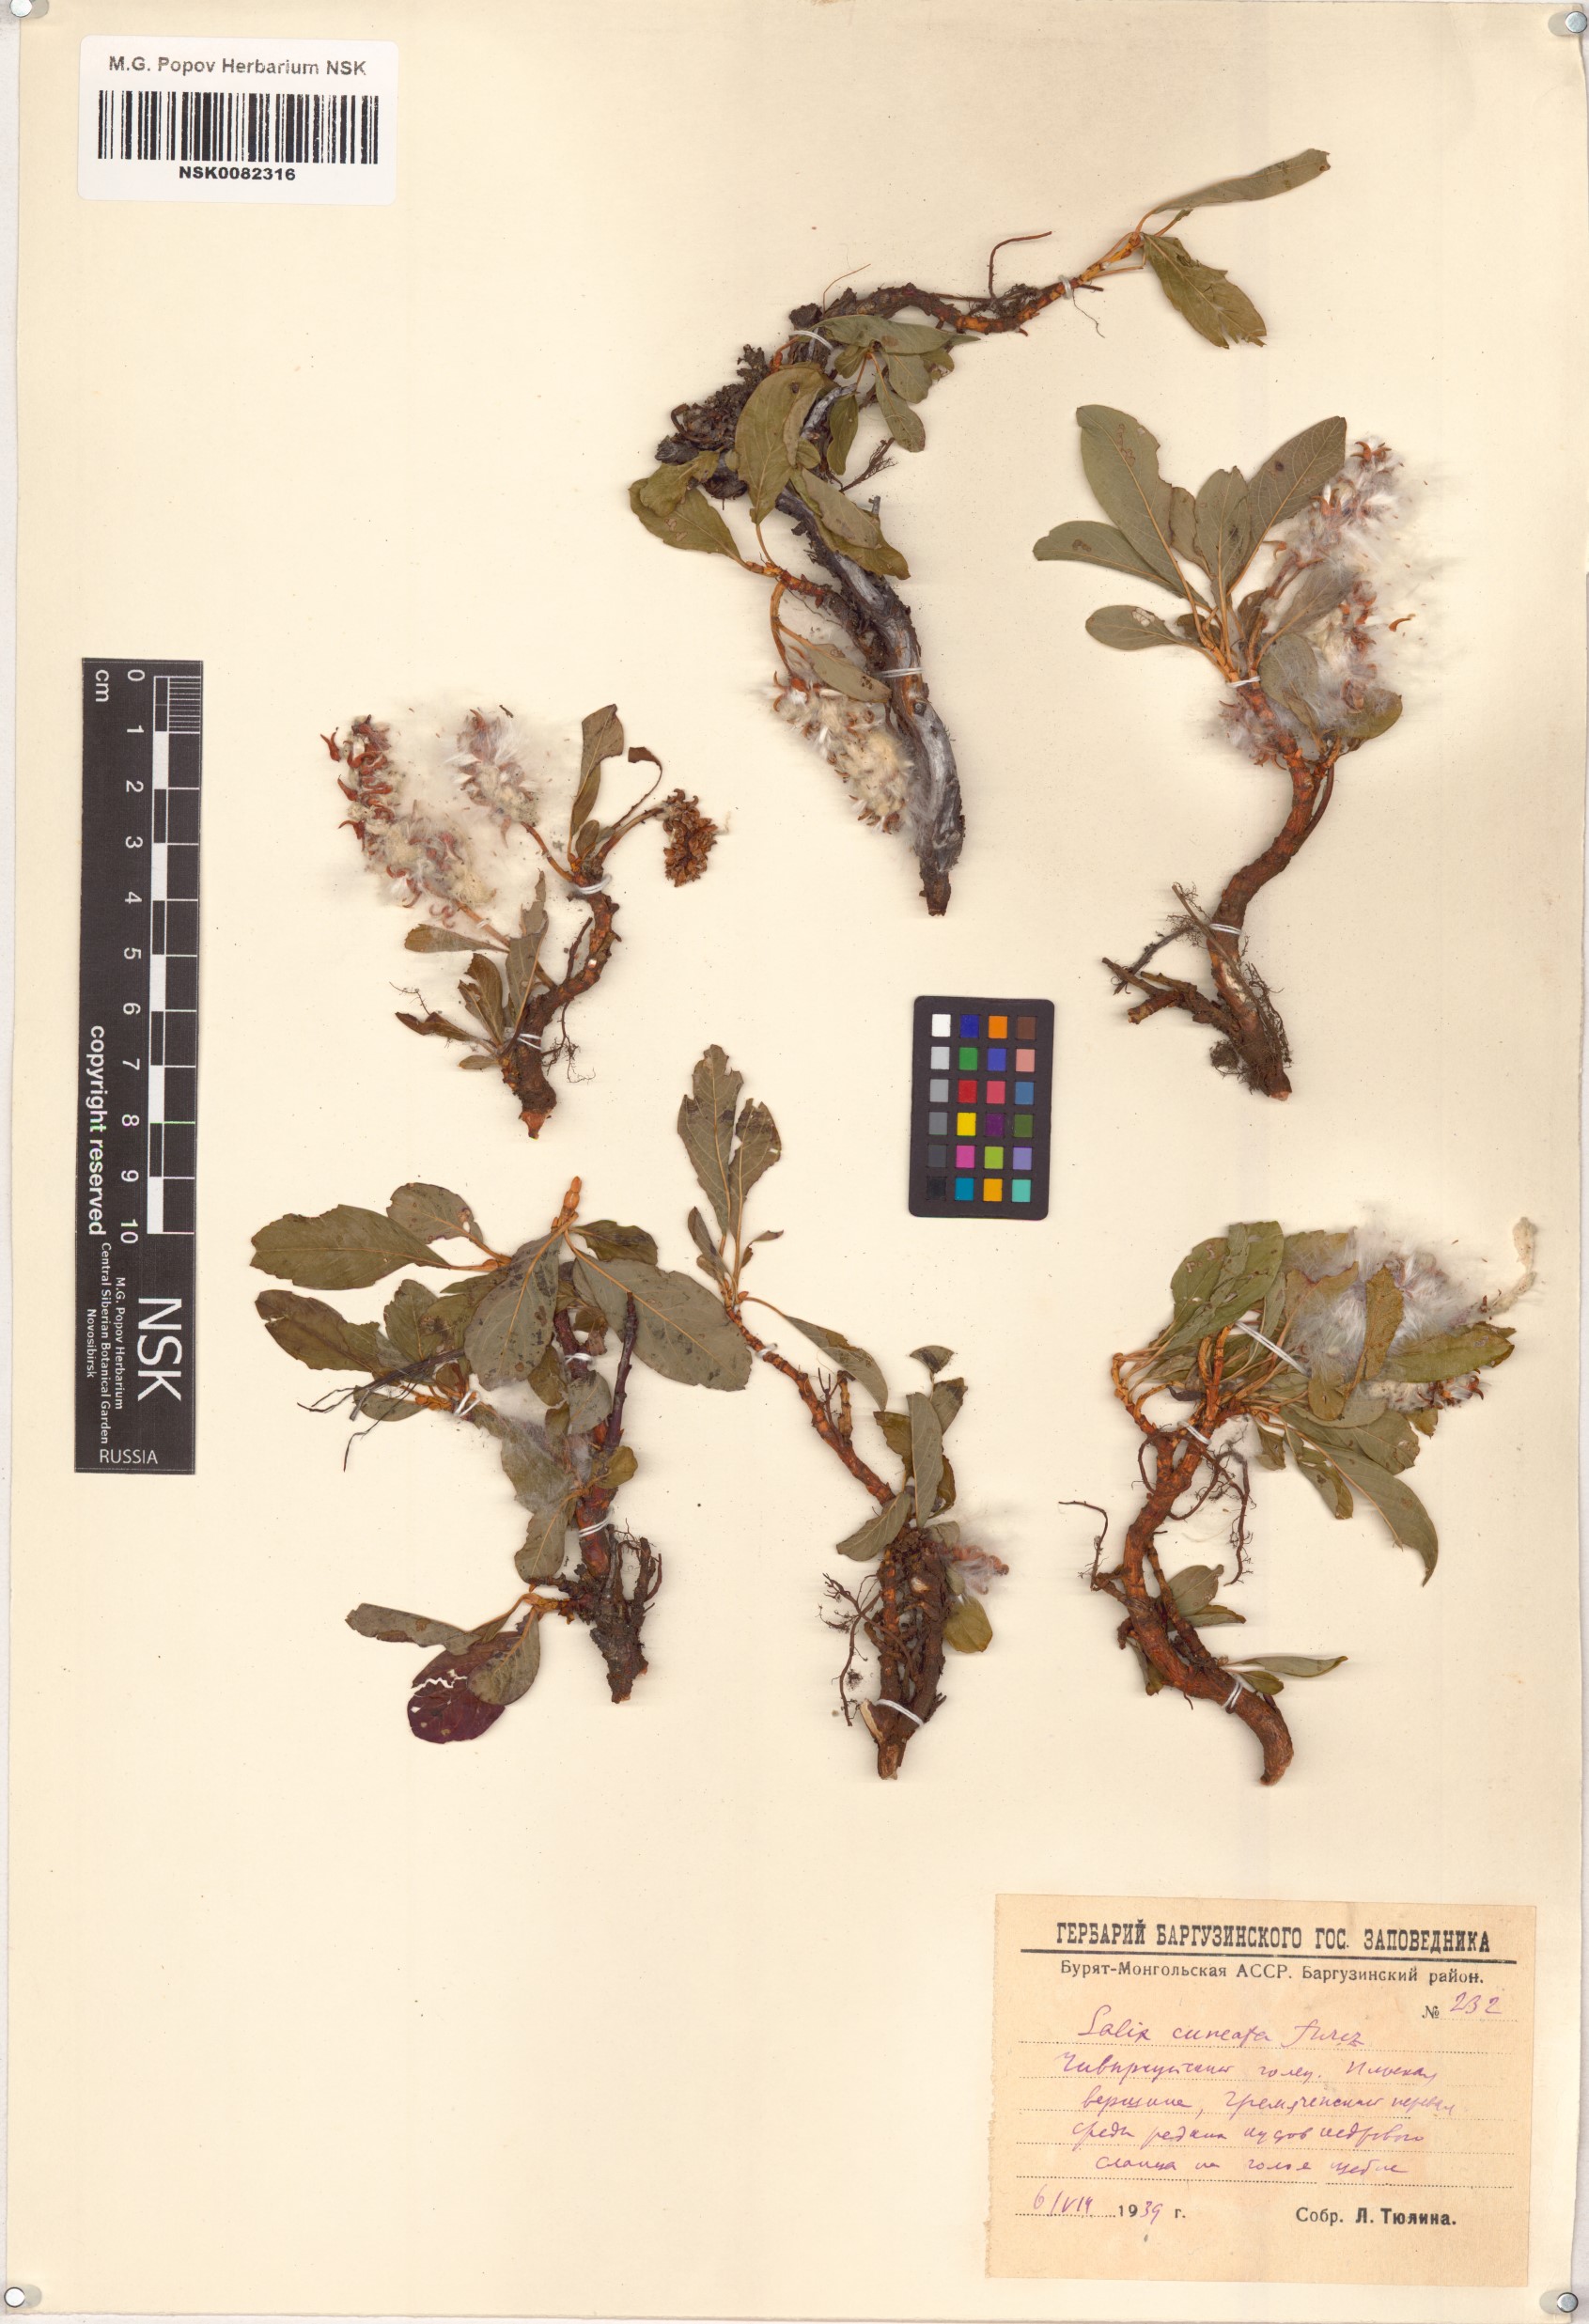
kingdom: Plantae
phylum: Tracheophyta
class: Magnoliopsida
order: Malpighiales
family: Salicaceae
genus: Salix
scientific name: Salix sphenophylla
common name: Wedge-leaved willow
